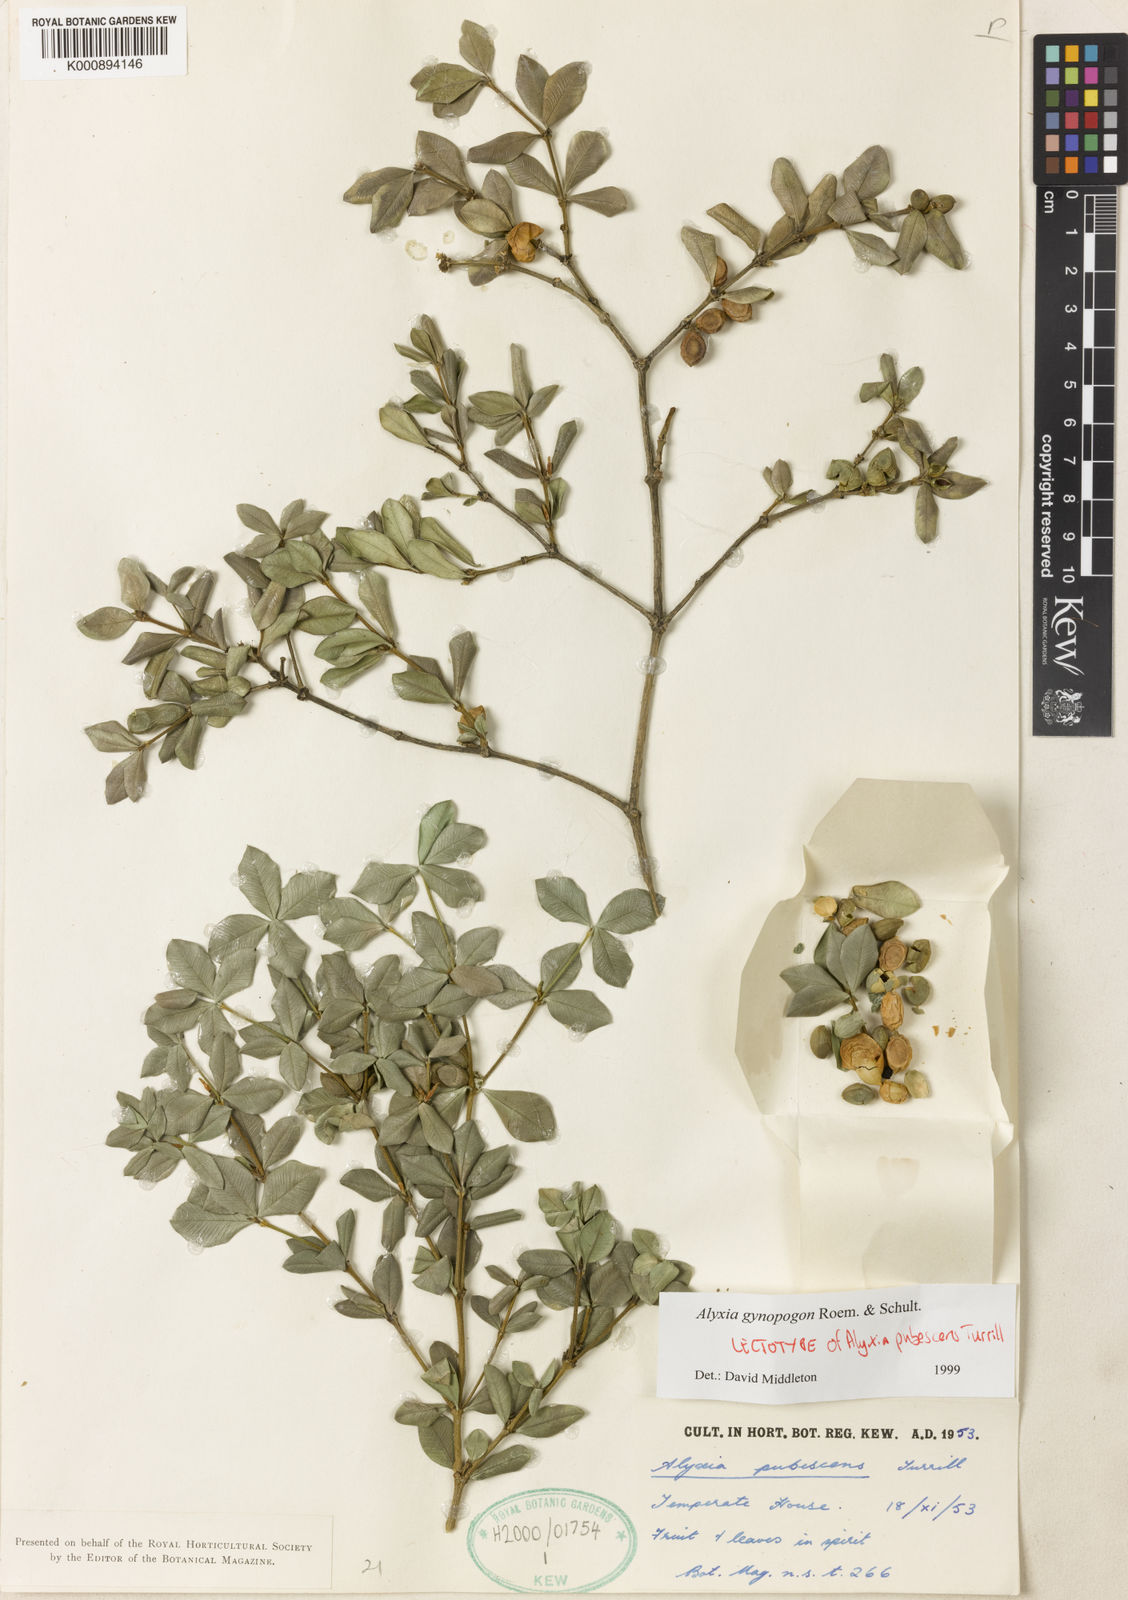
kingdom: Plantae
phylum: Tracheophyta
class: Magnoliopsida
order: Gentianales
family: Apocynaceae
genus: Alyxia
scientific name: Alyxia gynopogon
